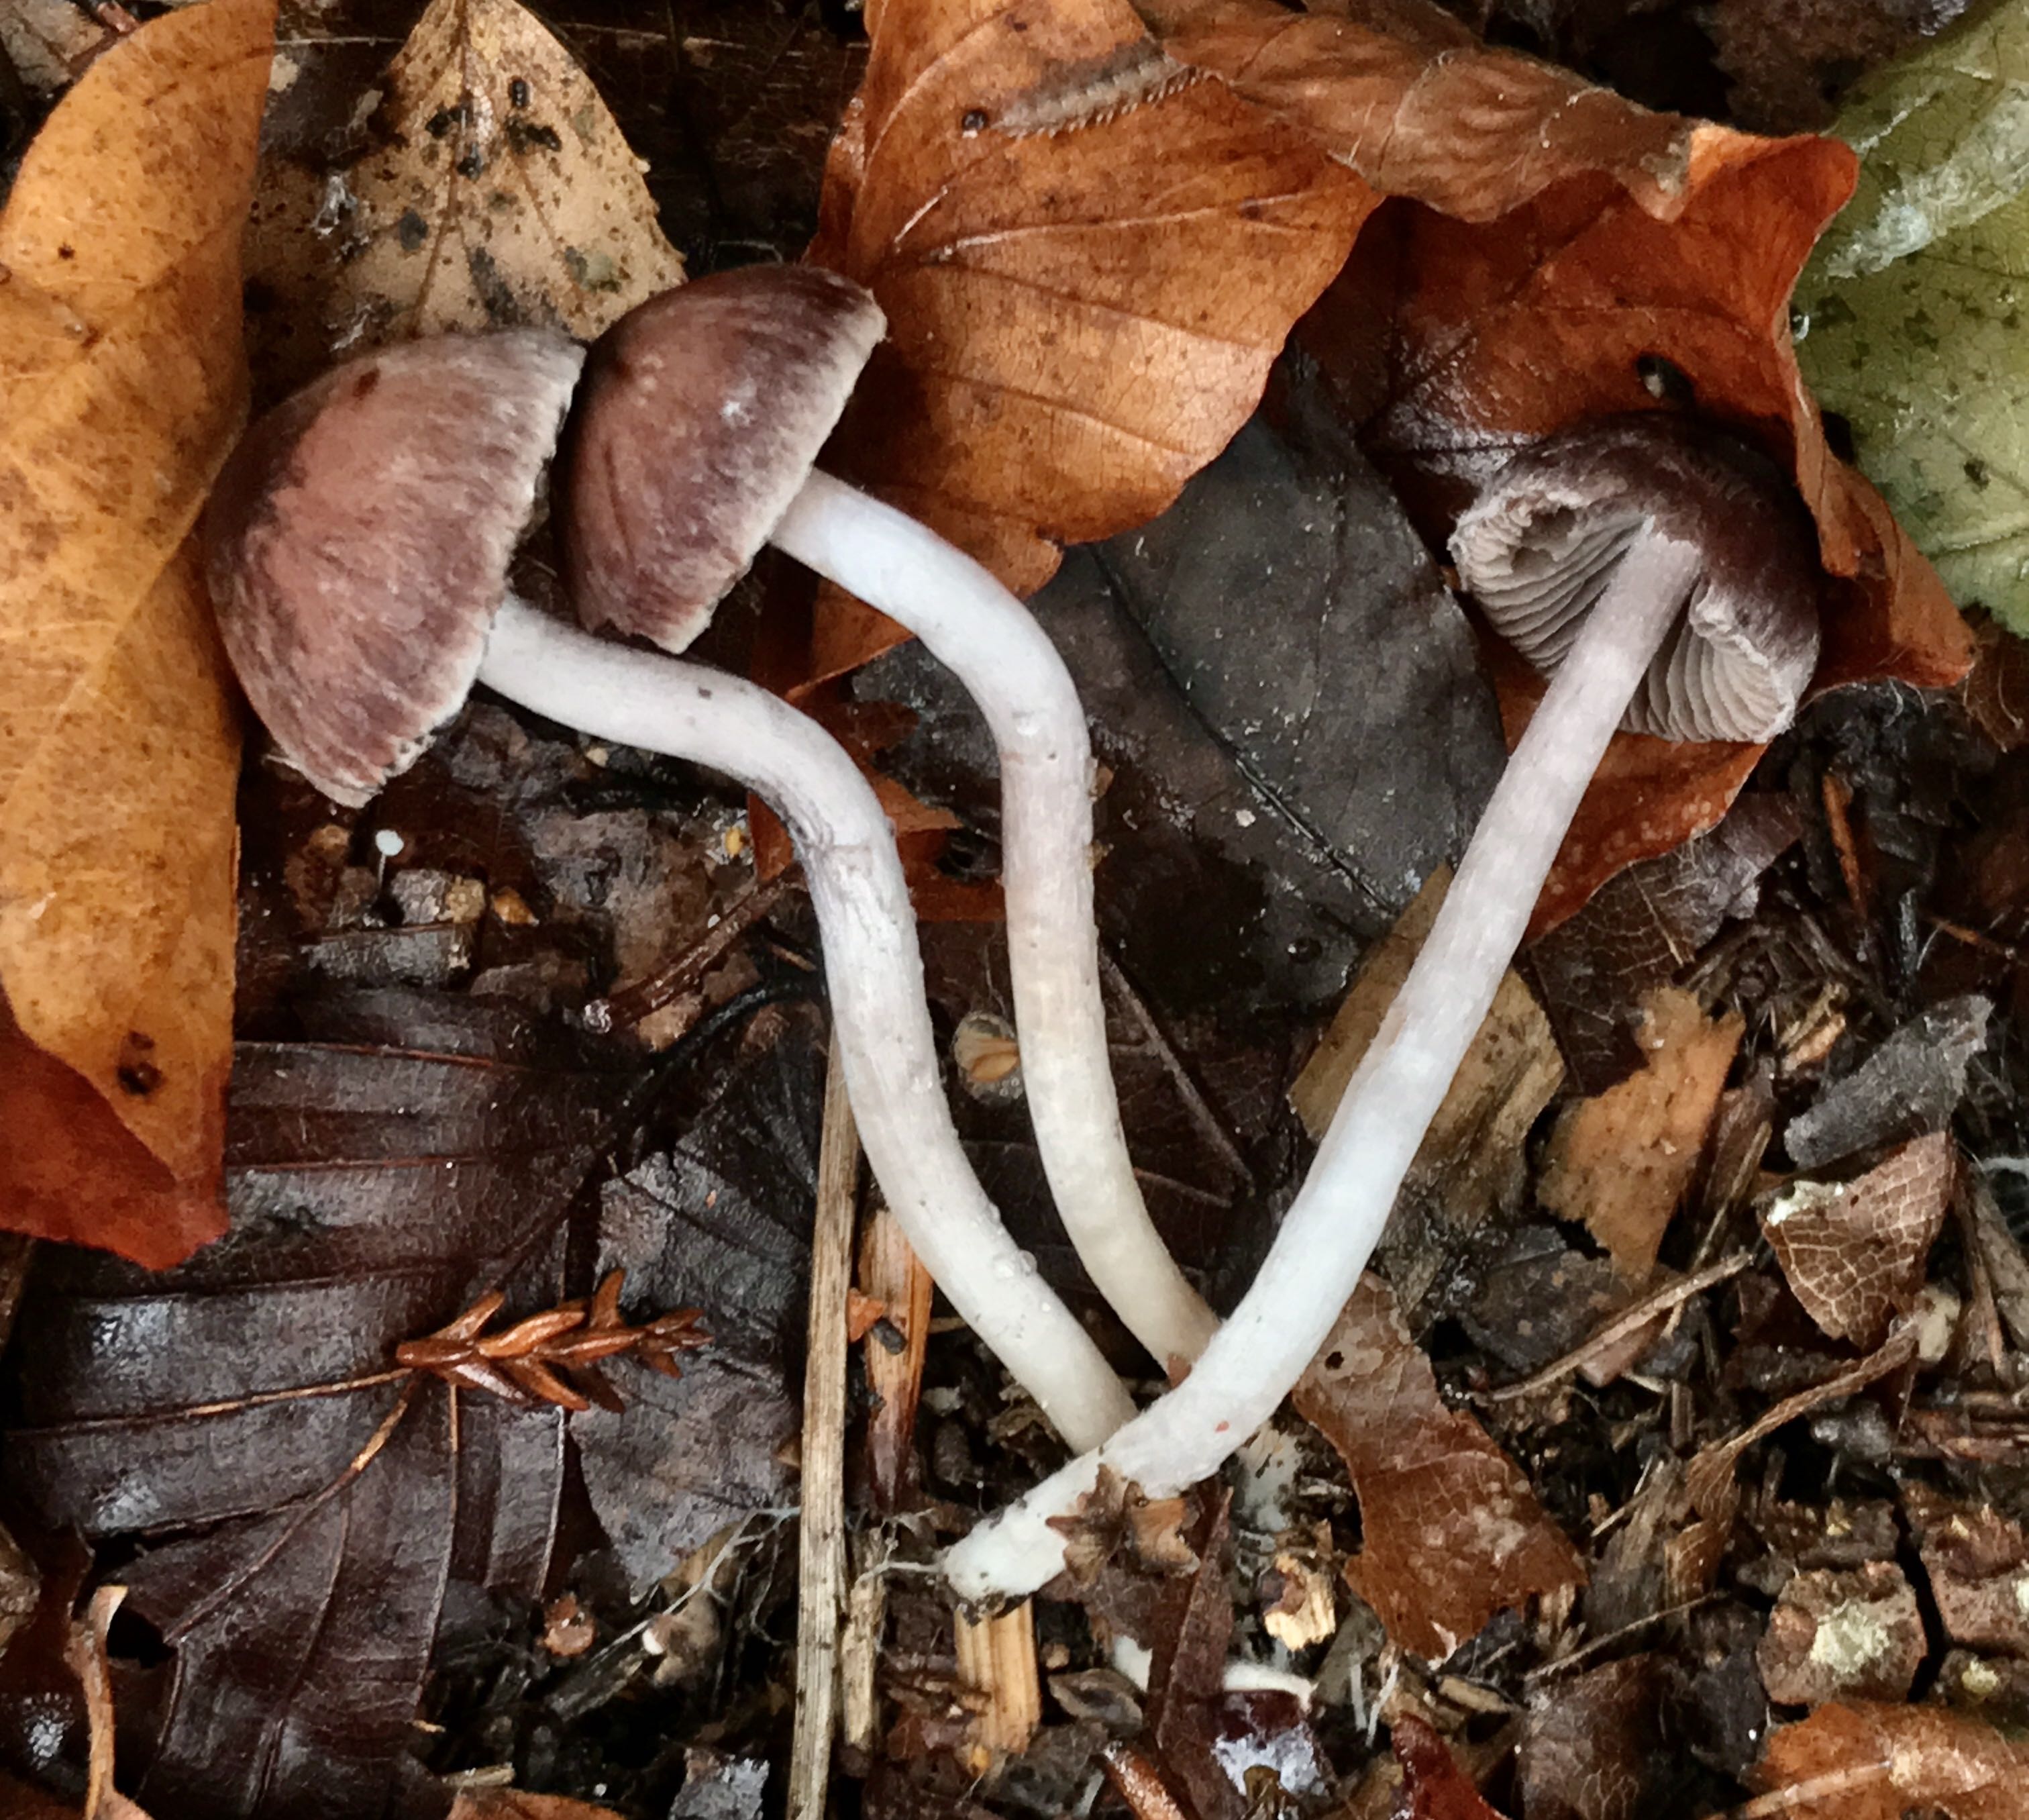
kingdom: Fungi
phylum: Basidiomycota
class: Agaricomycetes
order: Agaricales
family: Psathyrellaceae
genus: Psathyrella
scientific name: Psathyrella bipellis
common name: vinrød mørkhat
